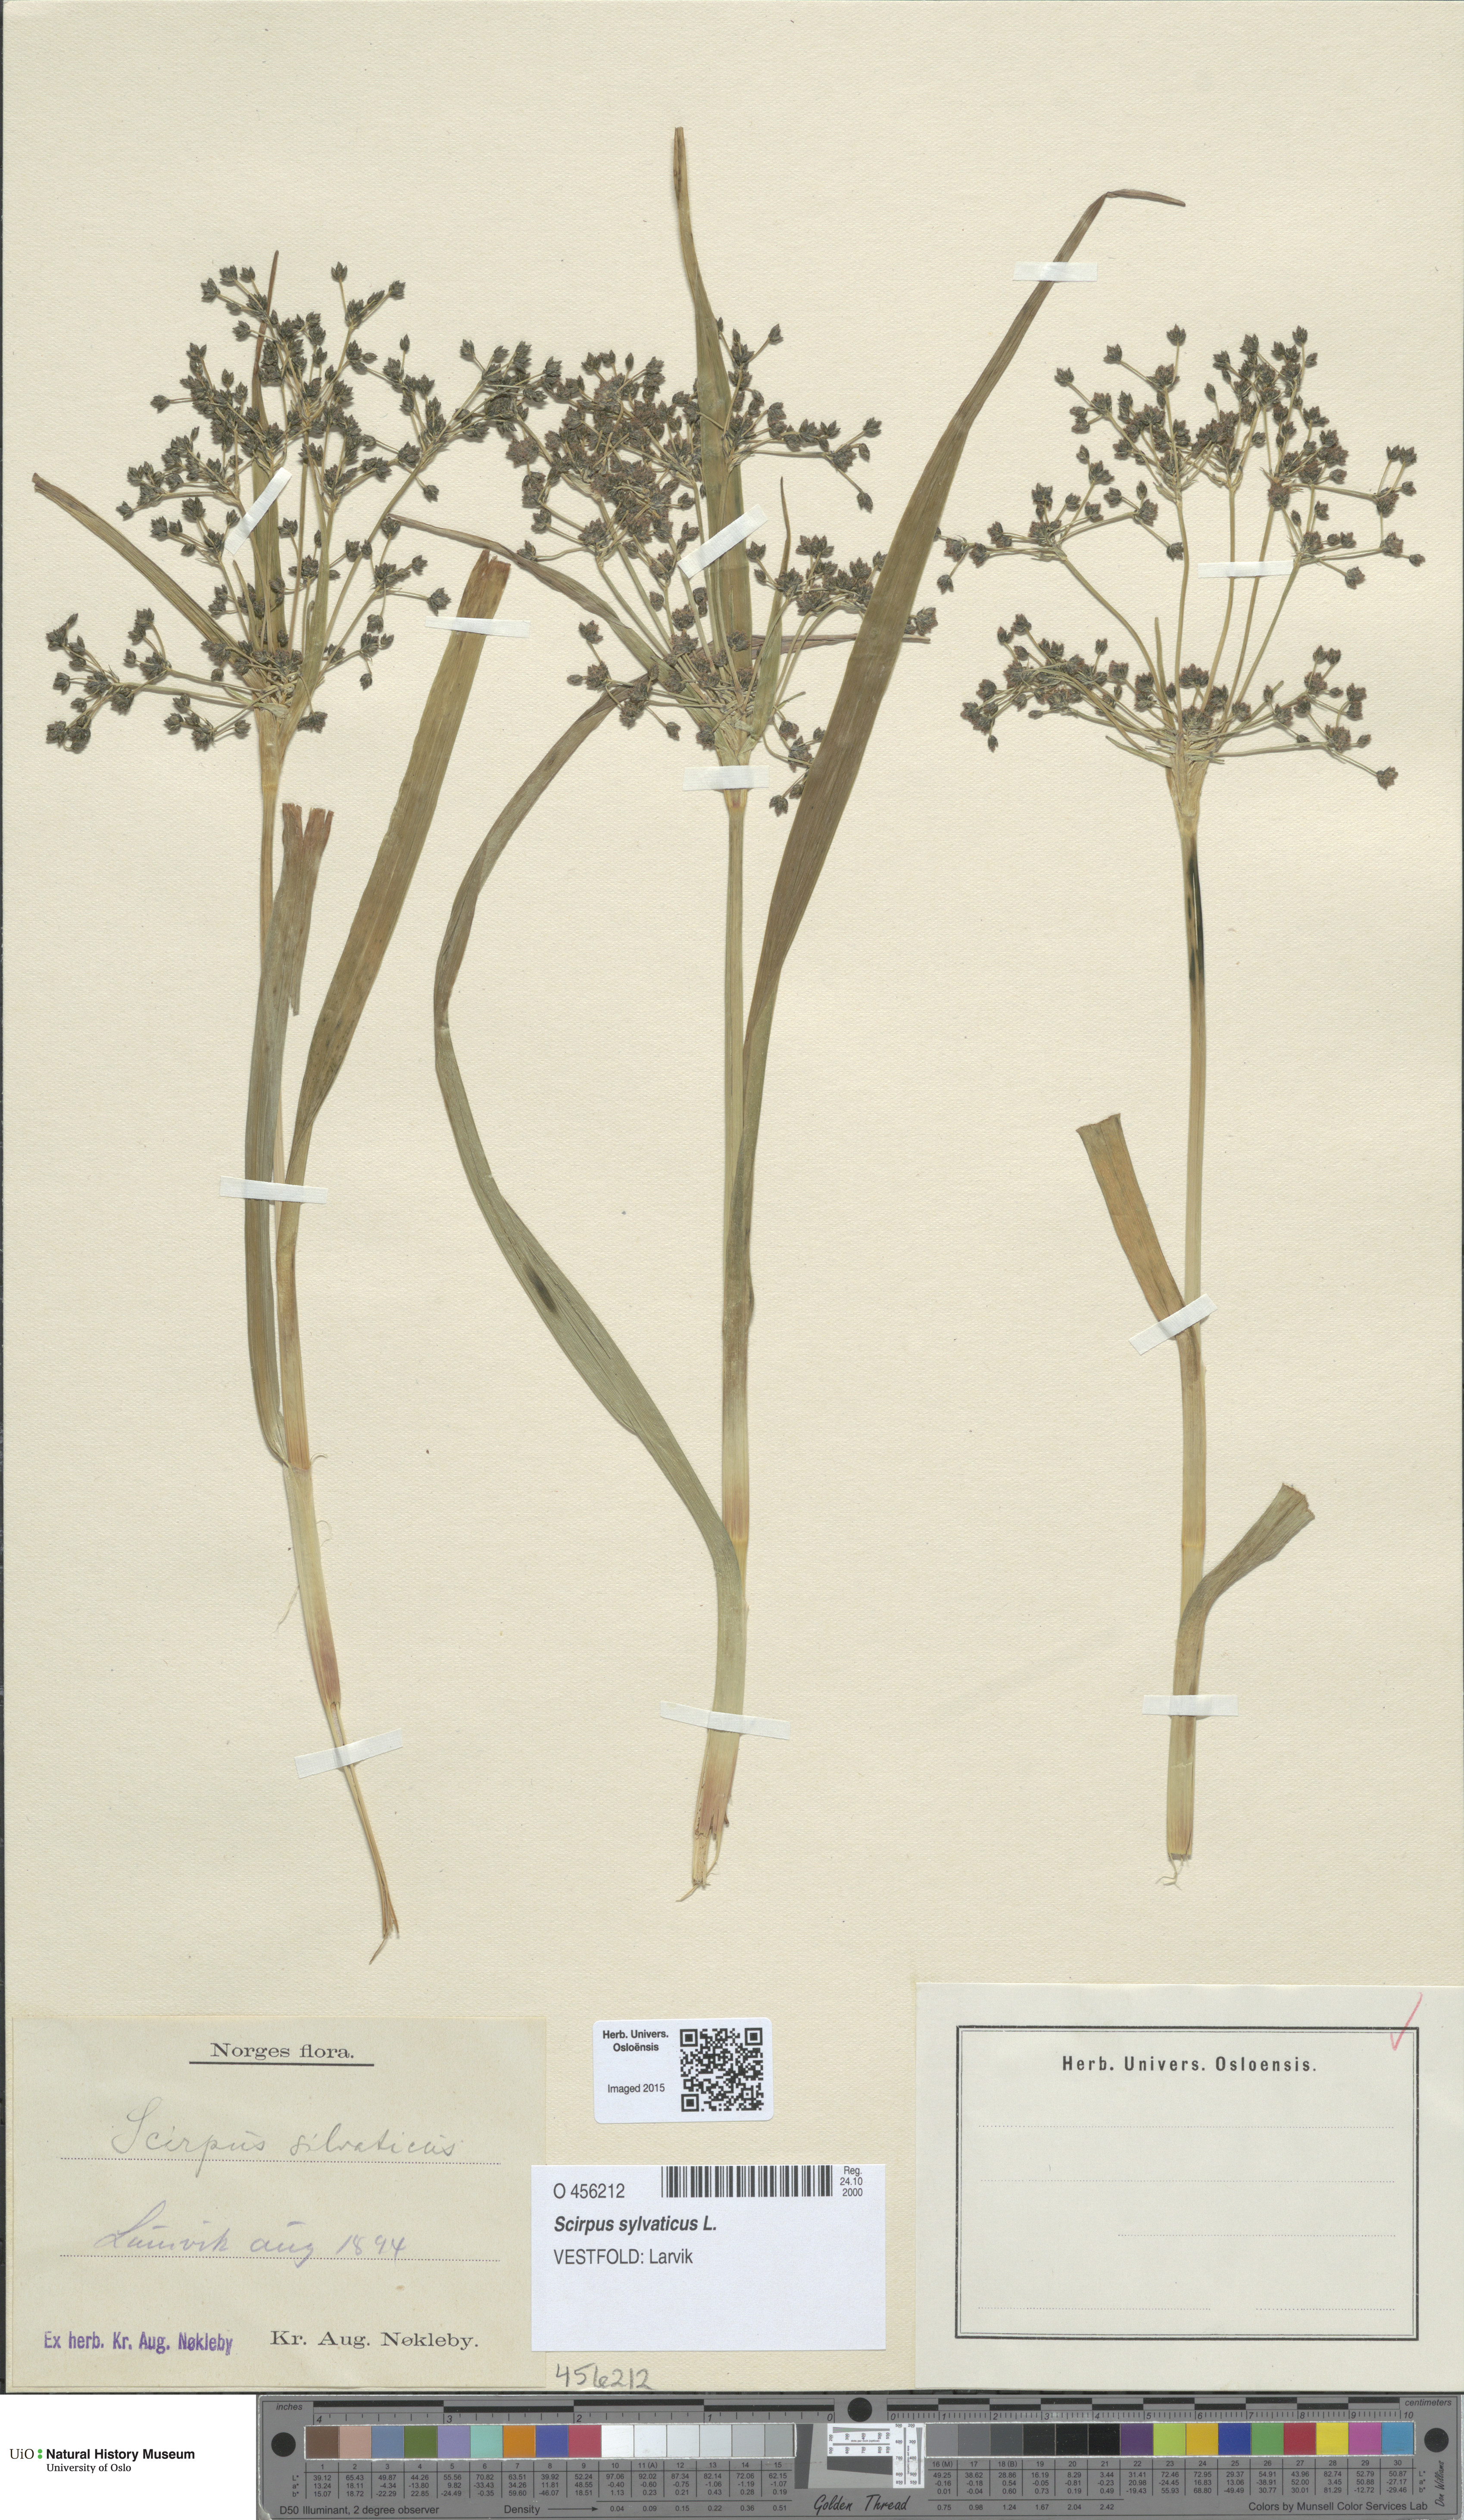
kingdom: Plantae
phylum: Tracheophyta
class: Liliopsida
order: Poales
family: Cyperaceae
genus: Scirpus
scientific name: Scirpus sylvaticus
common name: Wood club-rush
